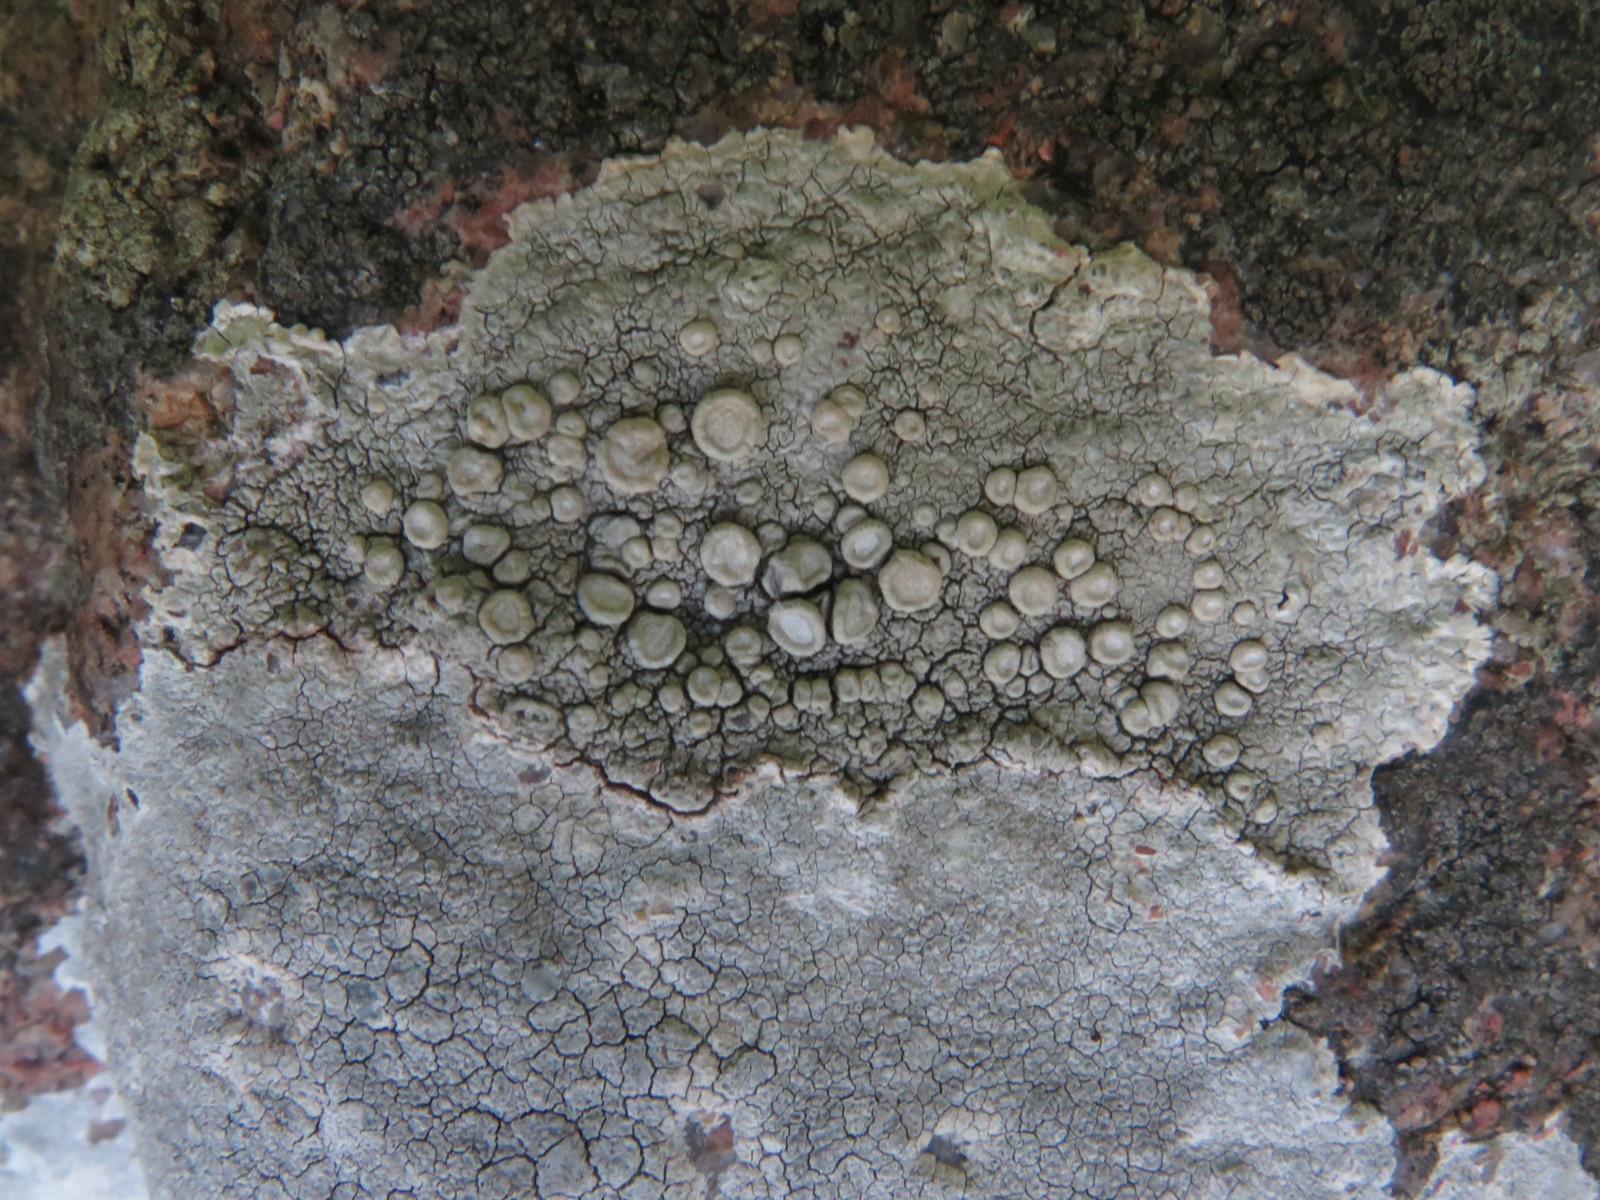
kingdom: Fungi
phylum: Ascomycota
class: Lecanoromycetes
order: Pertusariales
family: Ochrolechiaceae
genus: Ochrolechia
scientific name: Ochrolechia parella
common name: almindelig blegskivelav
